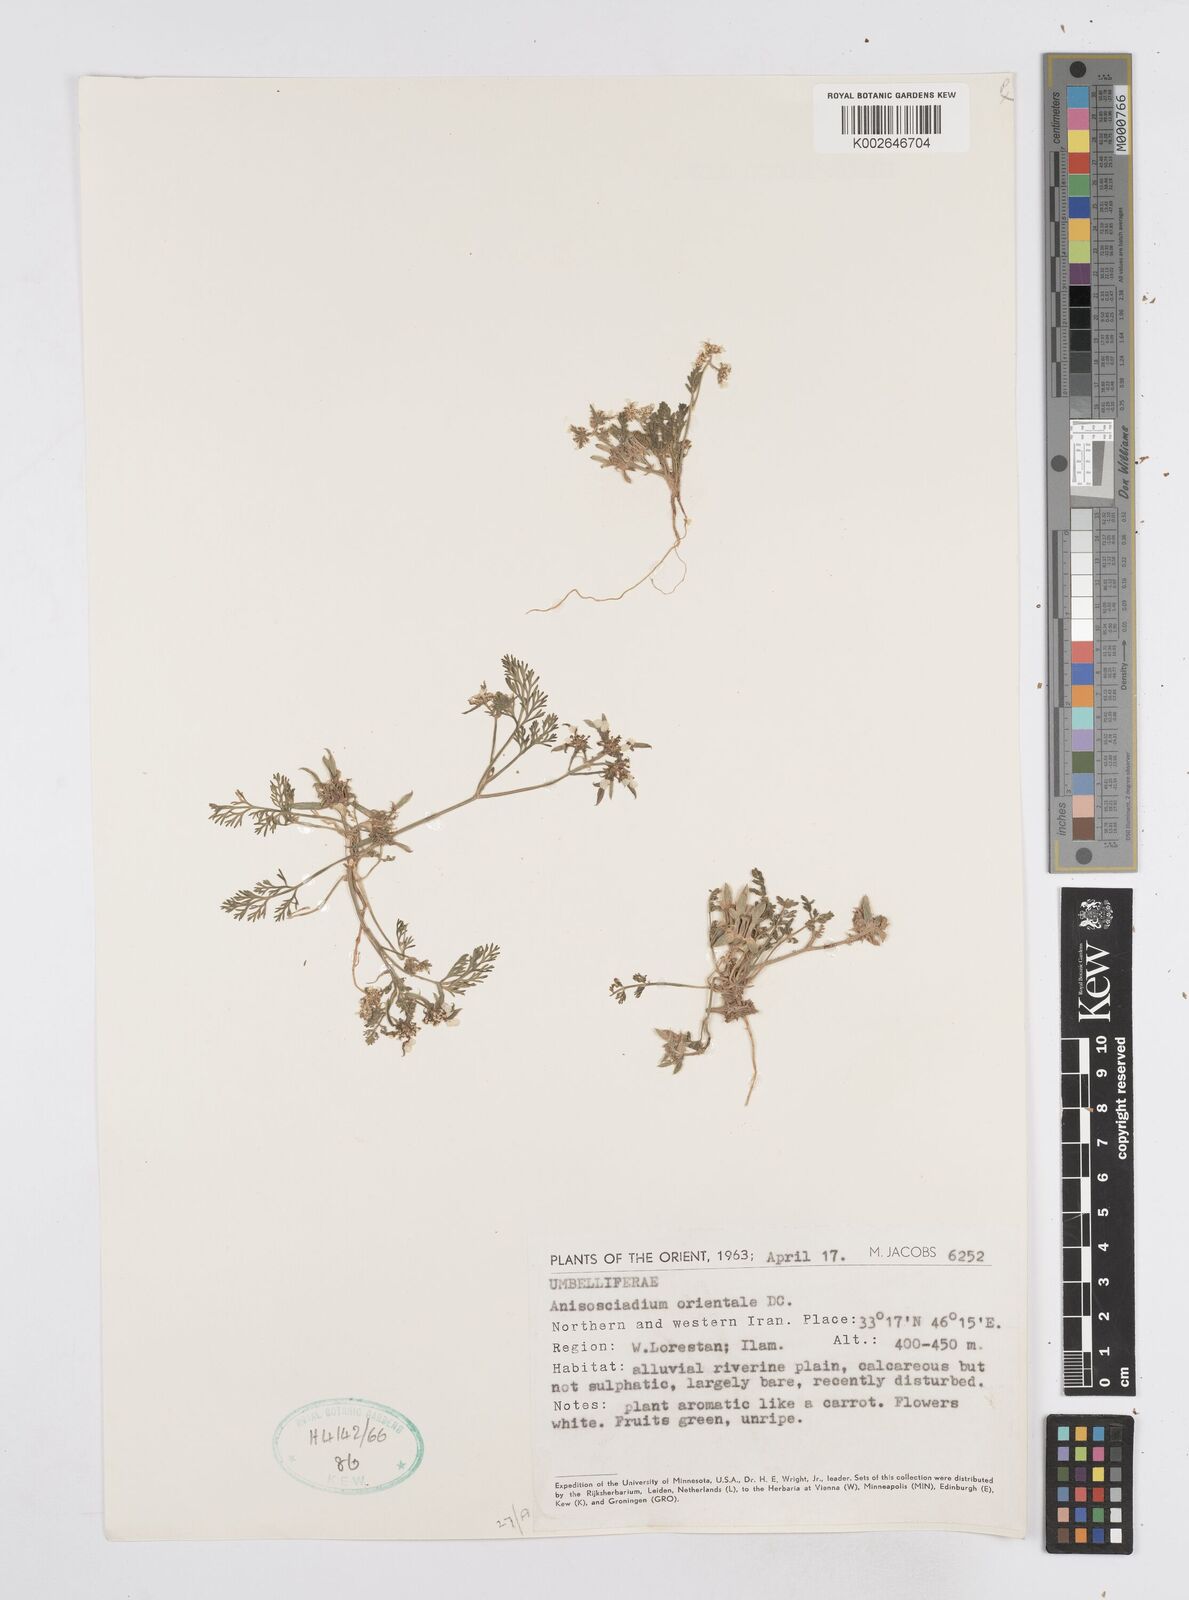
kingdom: Plantae
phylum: Tracheophyta
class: Magnoliopsida
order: Apiales
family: Apiaceae
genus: Anisosciadium
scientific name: Anisosciadium orientale
